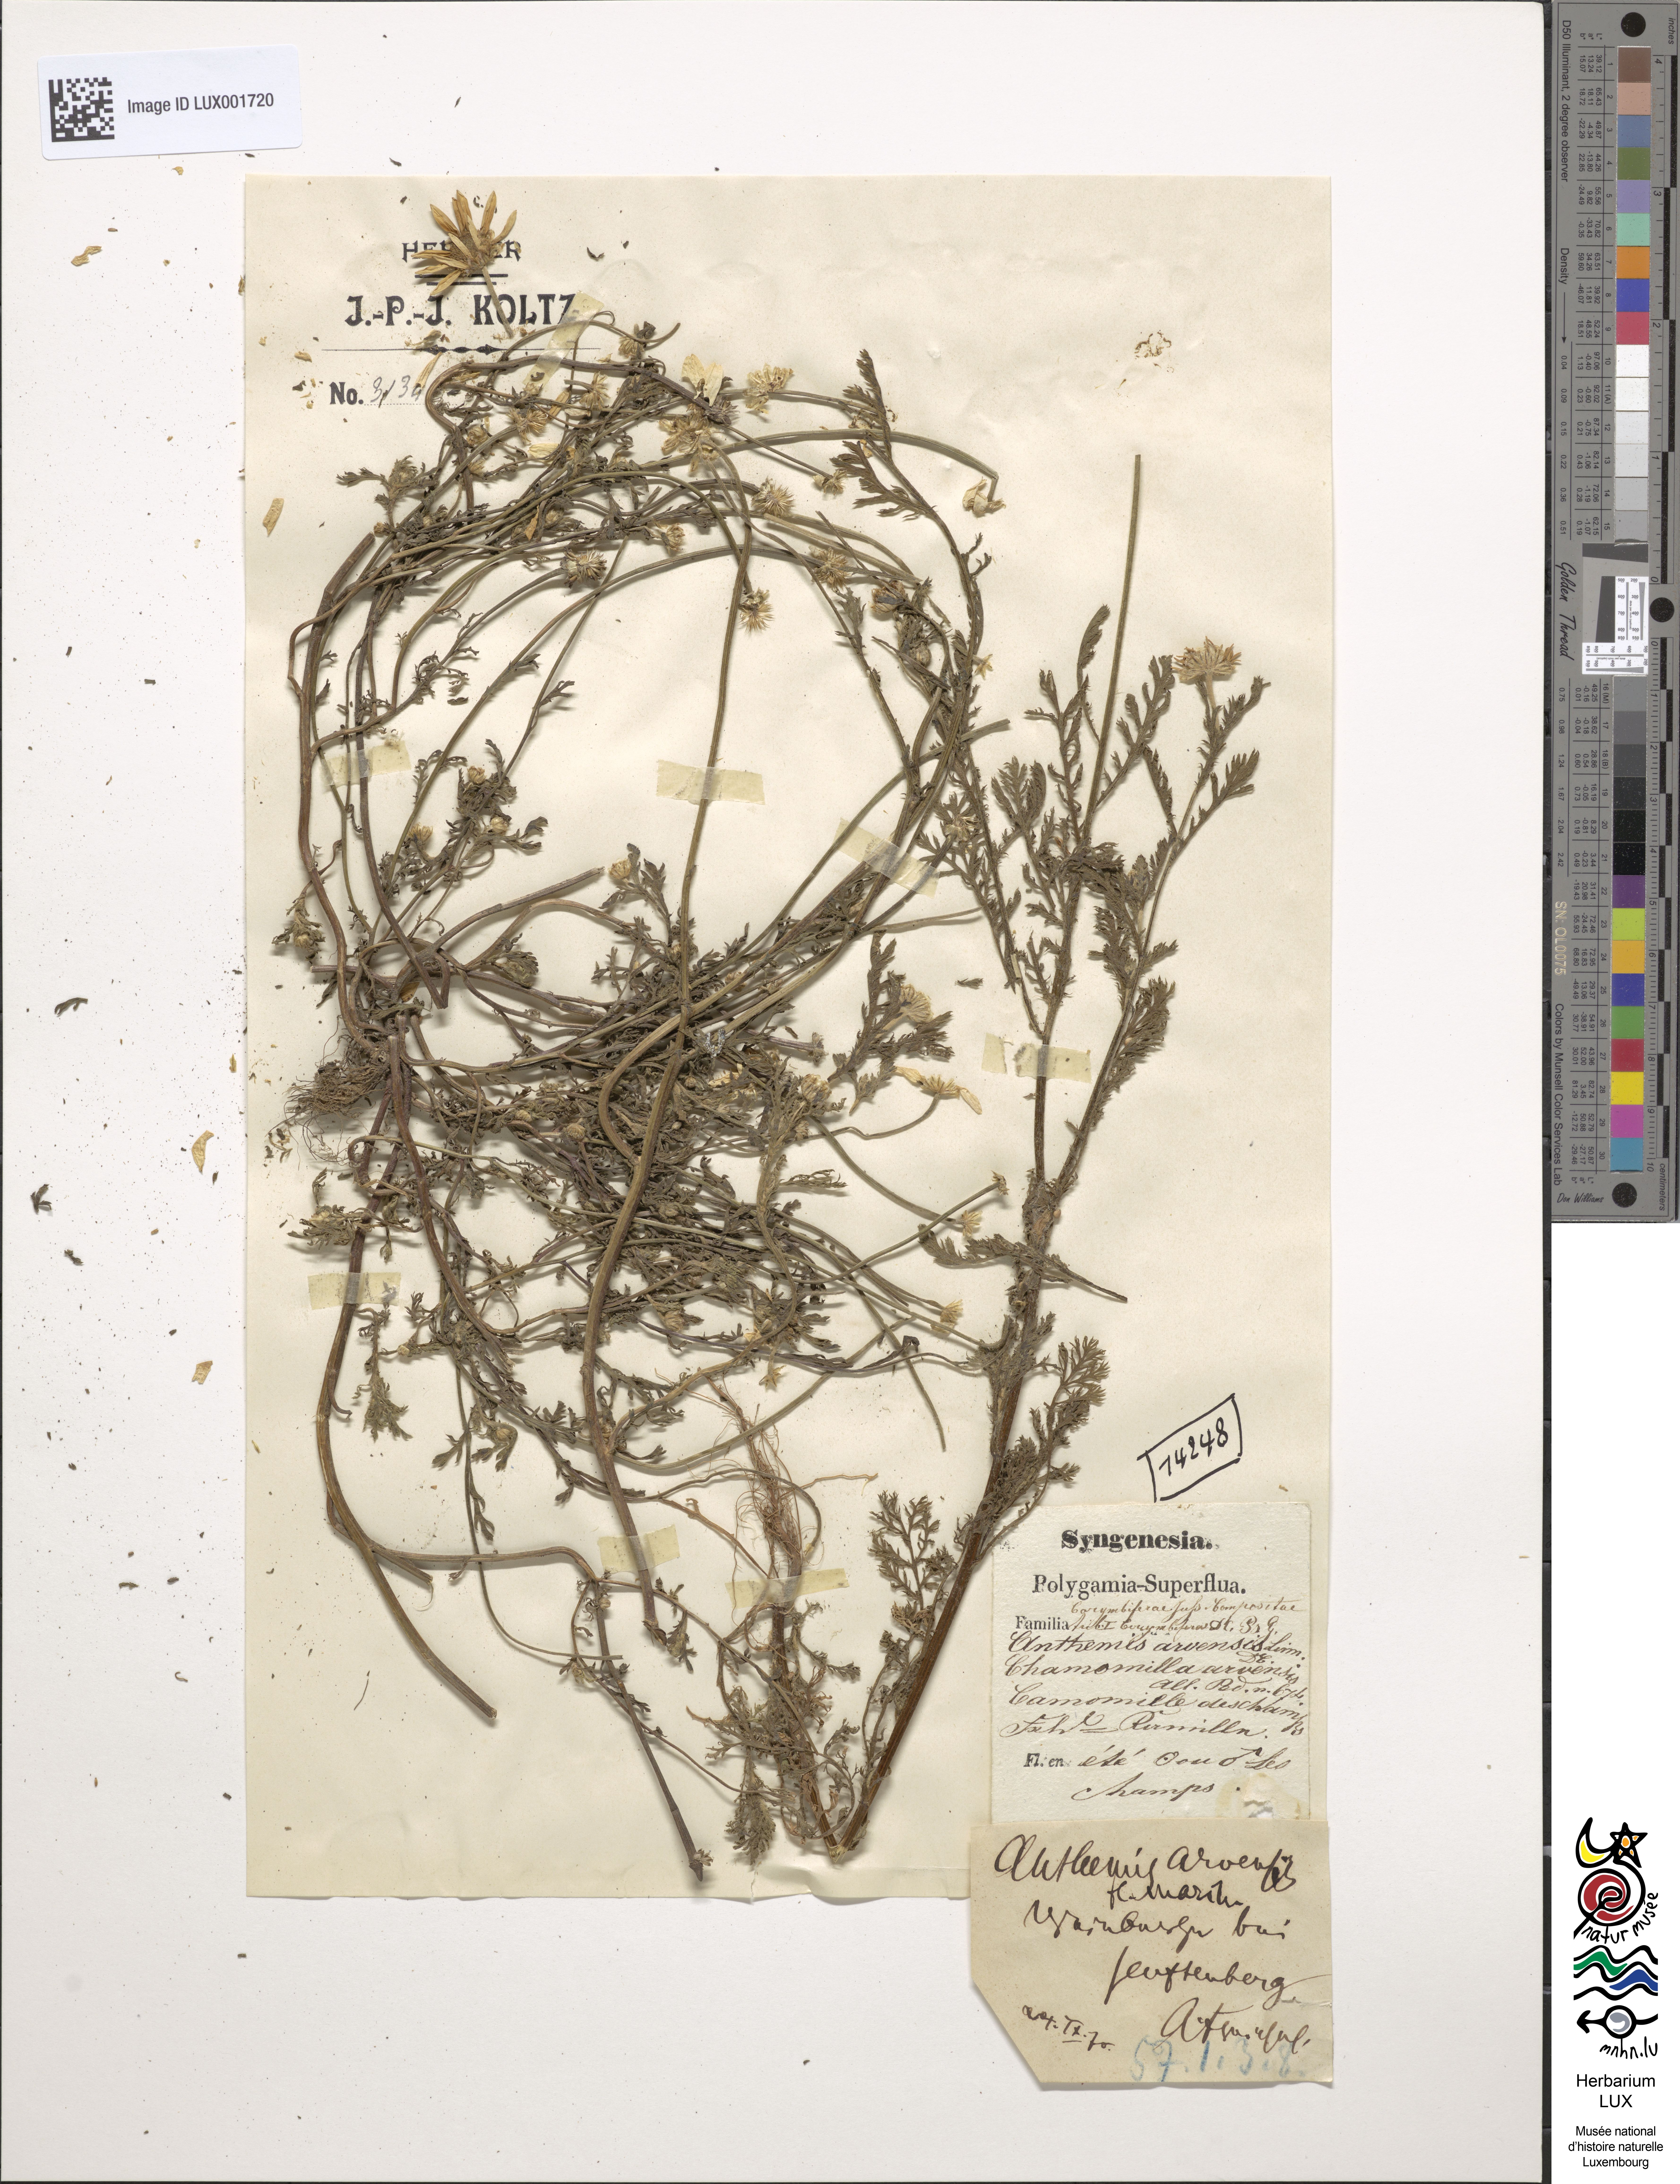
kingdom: Plantae
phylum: Tracheophyta
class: Magnoliopsida
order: Asterales
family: Asteraceae
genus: Anthemis
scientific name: Anthemis arvensis
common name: Corn chamomile
